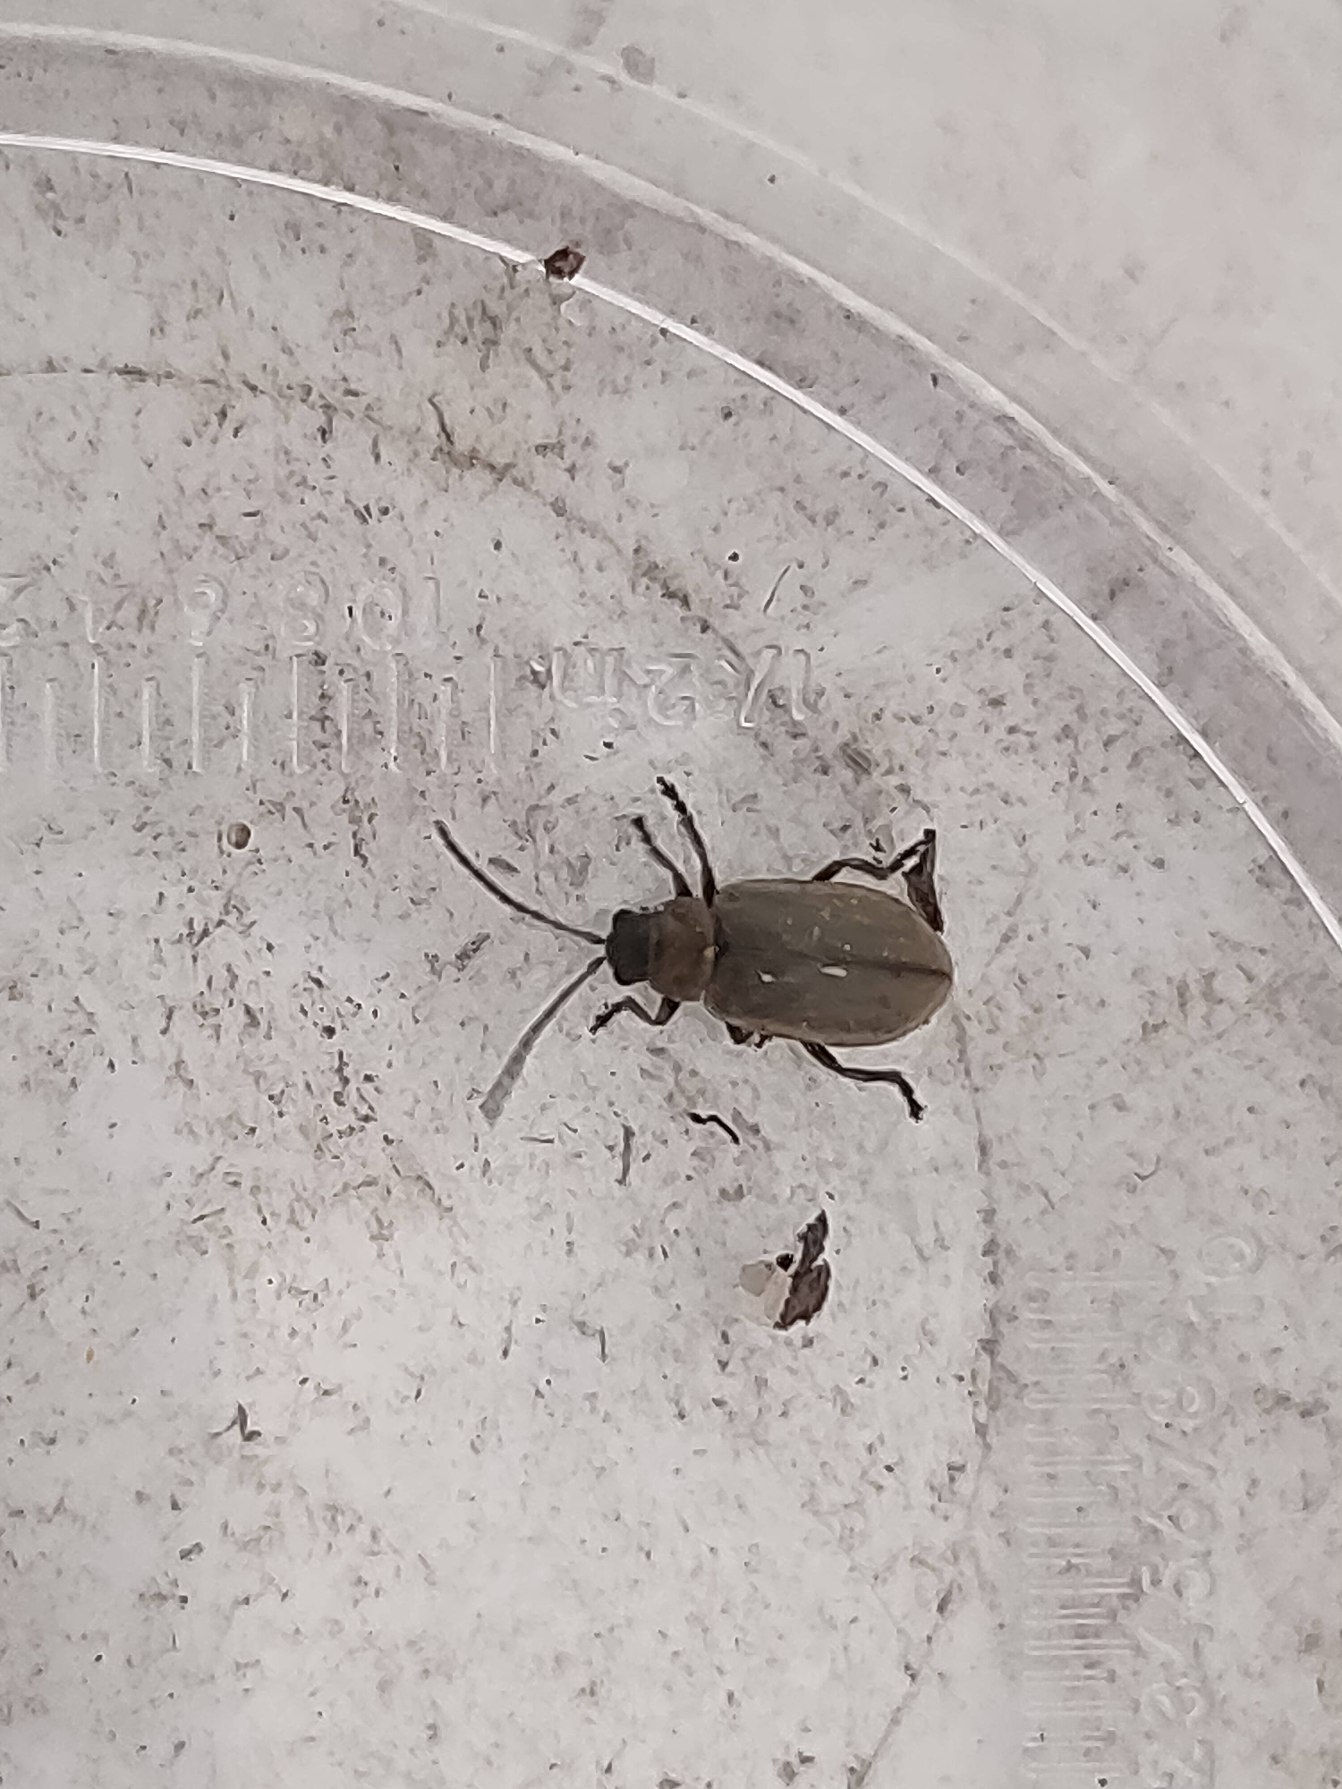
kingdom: Animalia
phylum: Arthropoda
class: Insecta
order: Coleoptera
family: Chrysomelidae
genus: Lochmaea
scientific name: Lochmaea suturalis
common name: Lyngbladbille
